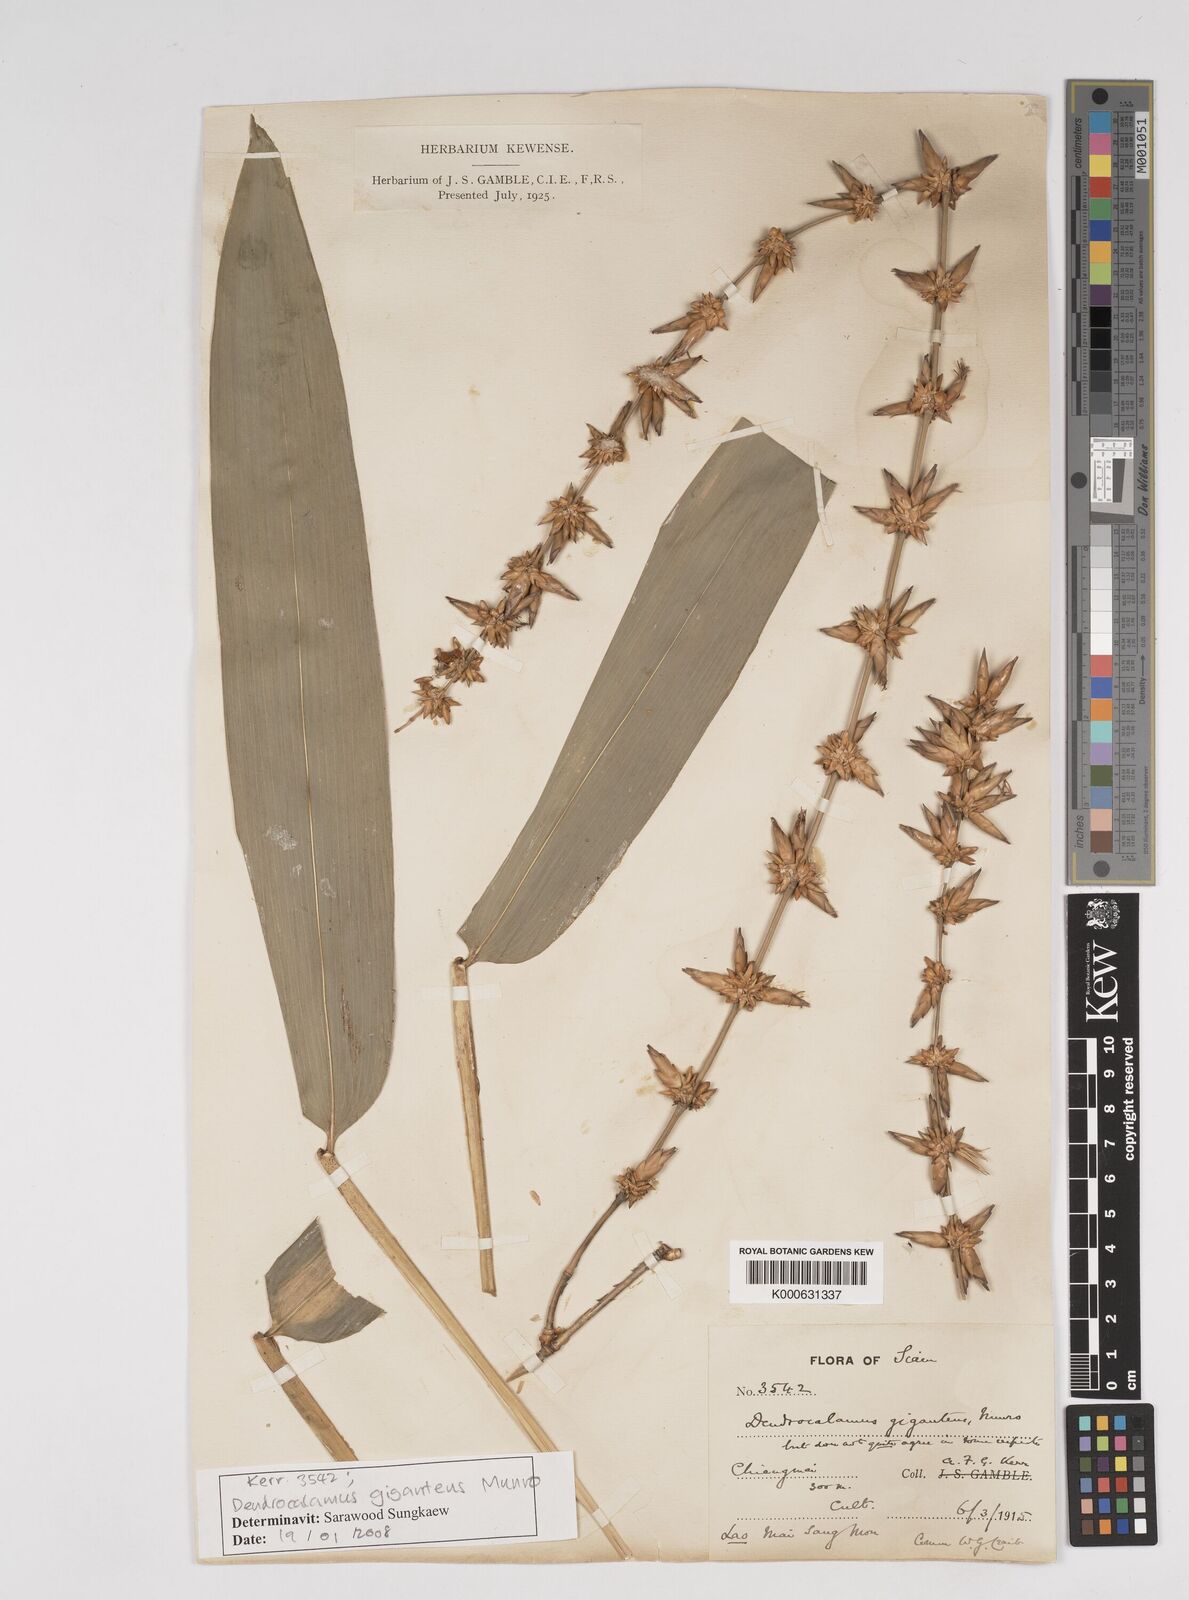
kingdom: Plantae
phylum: Tracheophyta
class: Liliopsida
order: Poales
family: Poaceae
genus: Dendrocalamus
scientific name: Dendrocalamus giganteus
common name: Giant bamboo
